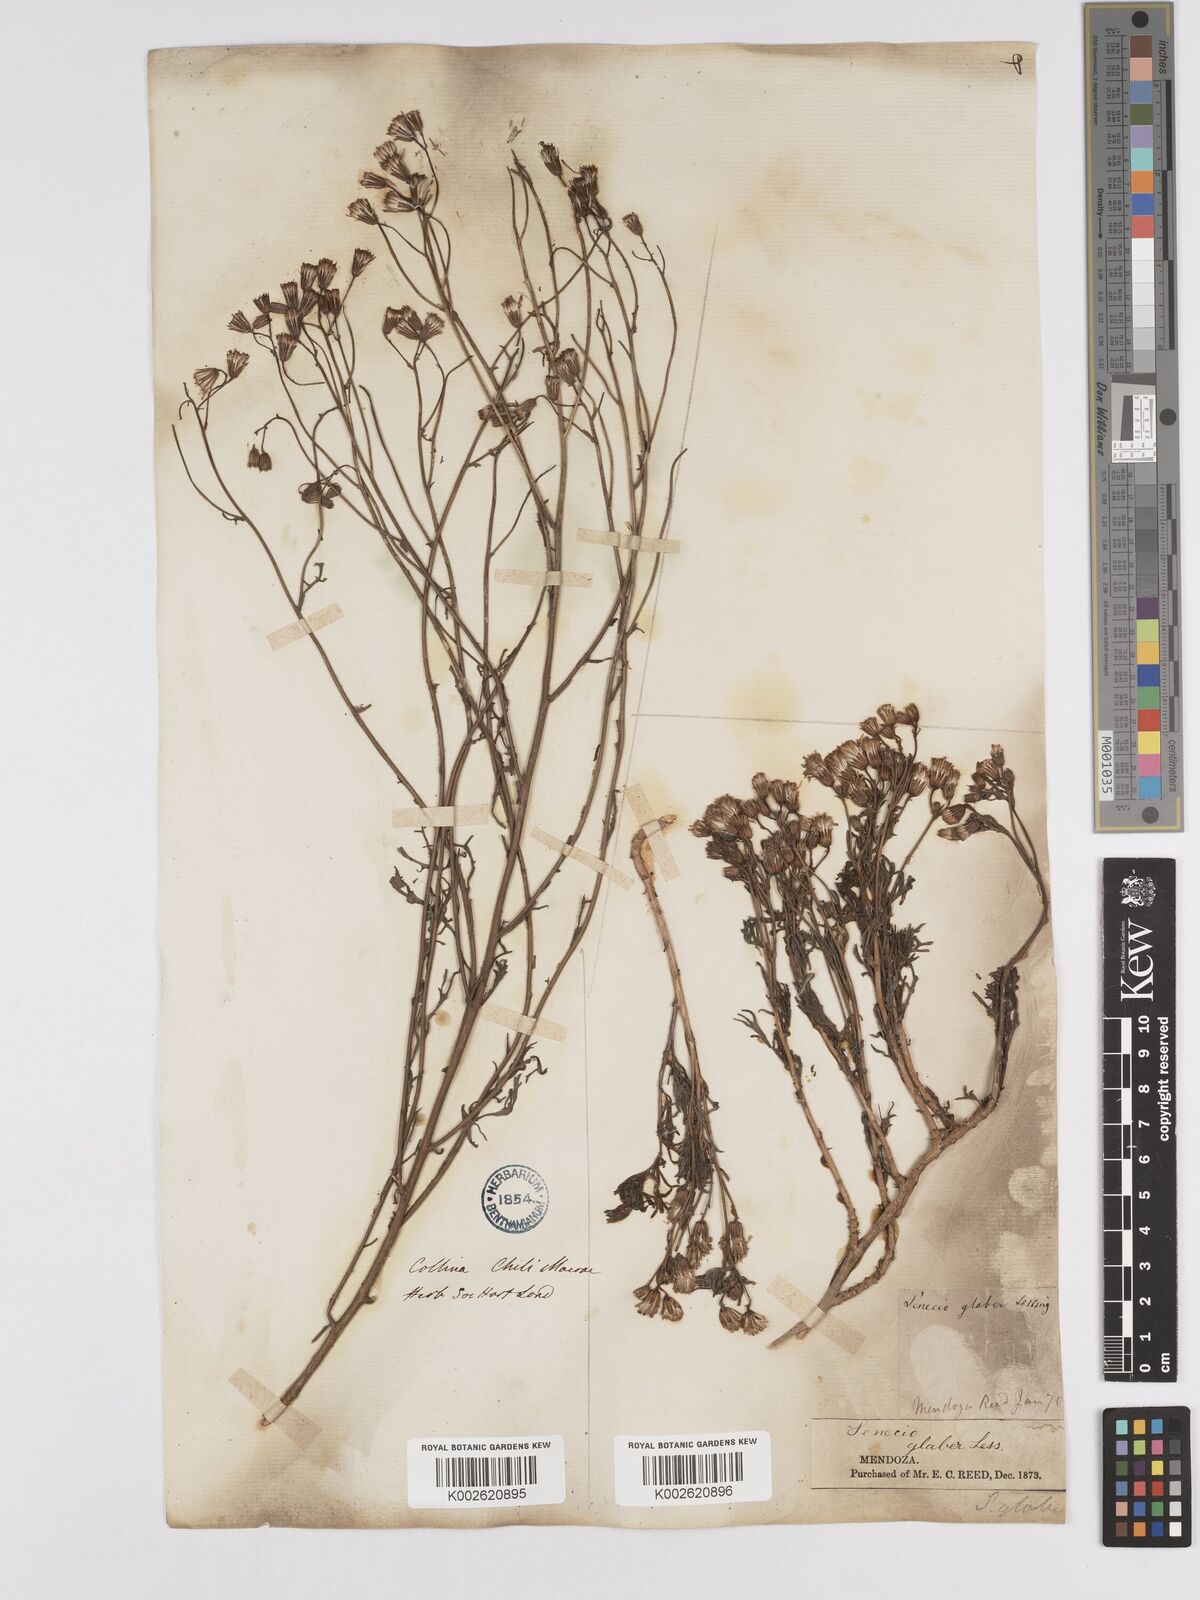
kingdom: Plantae
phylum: Tracheophyta
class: Magnoliopsida
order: Asterales
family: Asteraceae
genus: Senecio
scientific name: Senecio glaber
